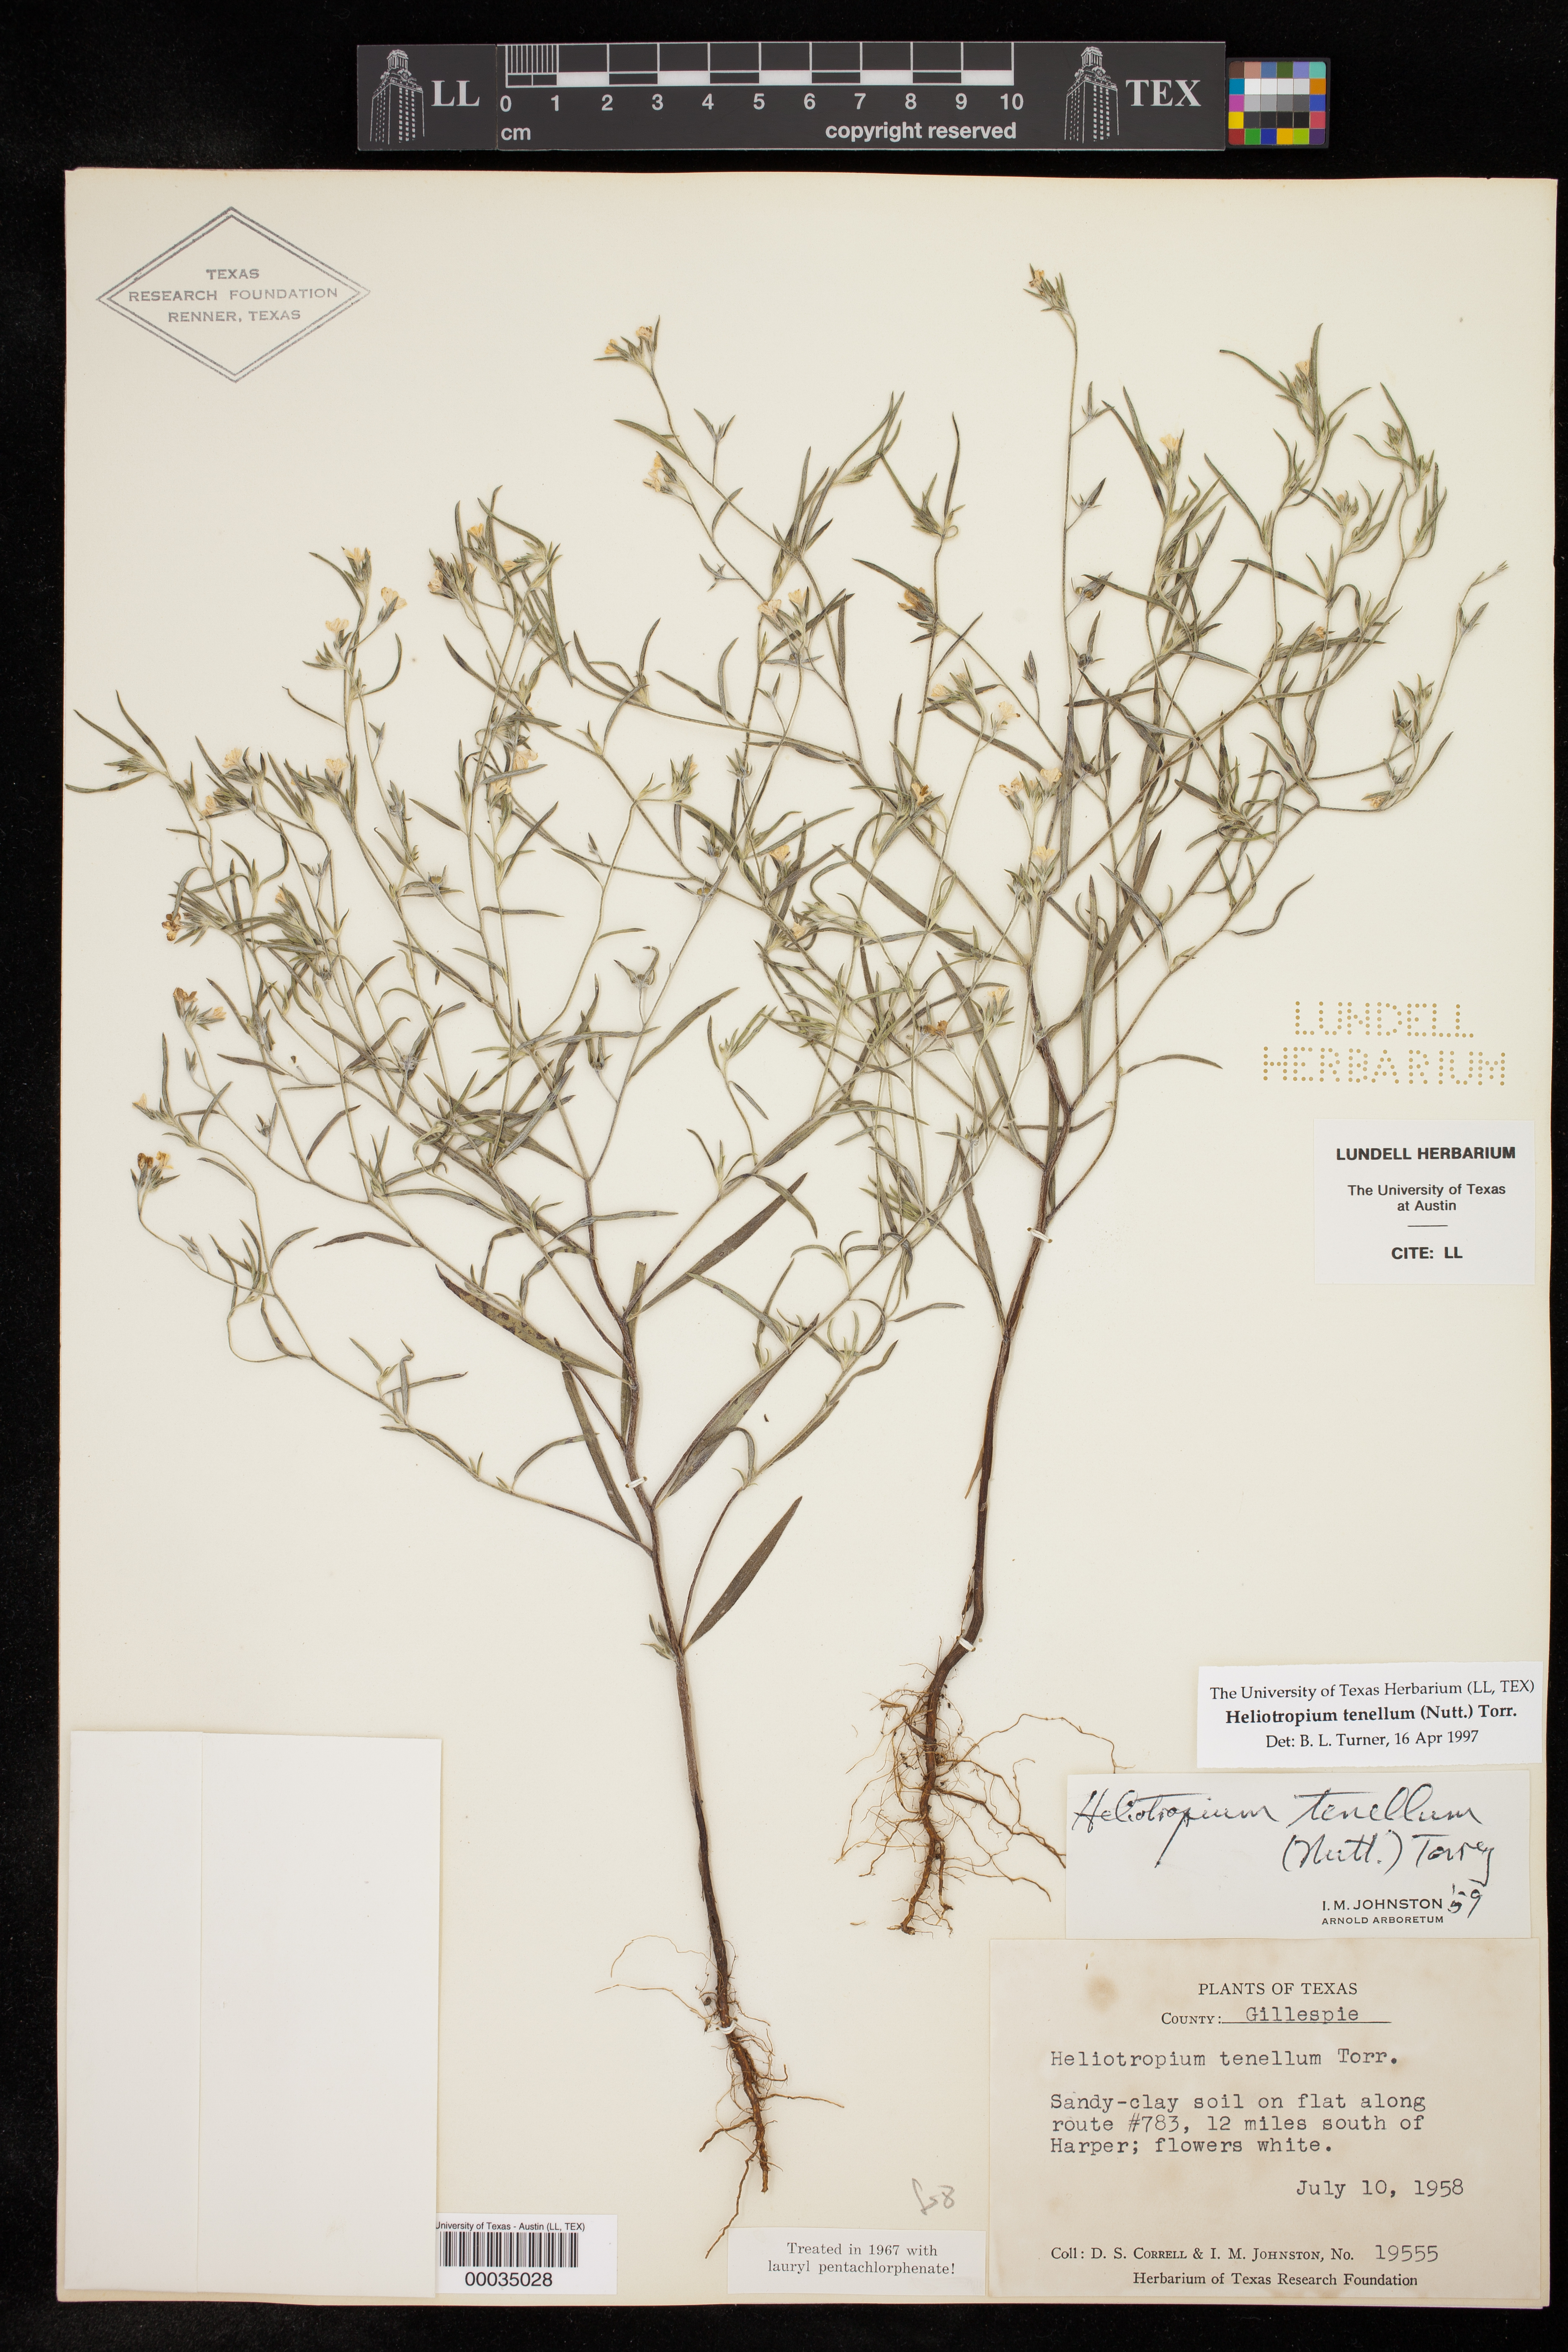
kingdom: Plantae
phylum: Tracheophyta
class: Magnoliopsida
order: Boraginales
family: Heliotropiaceae
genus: Euploca
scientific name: Euploca tenella
